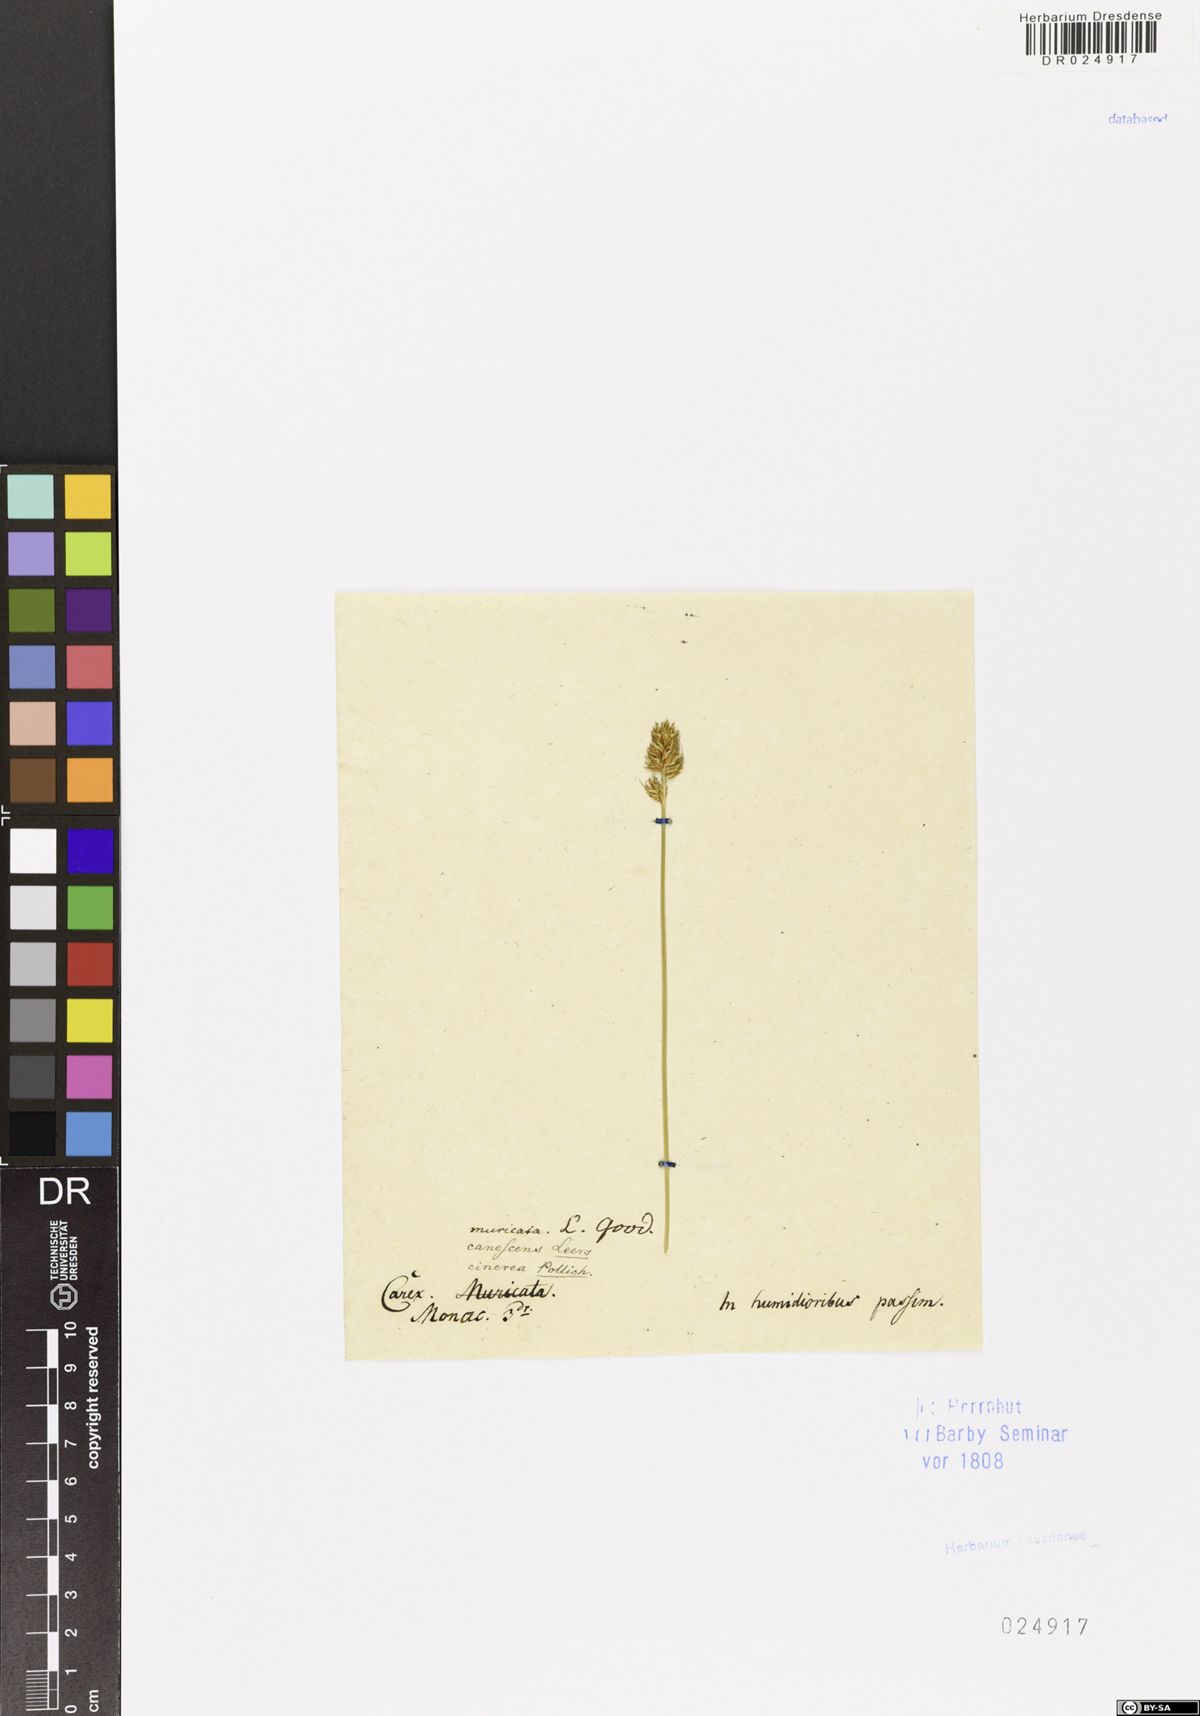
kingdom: Plantae
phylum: Tracheophyta
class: Liliopsida
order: Poales
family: Cyperaceae
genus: Carex
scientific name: Carex spicata
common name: Spiked sedge
